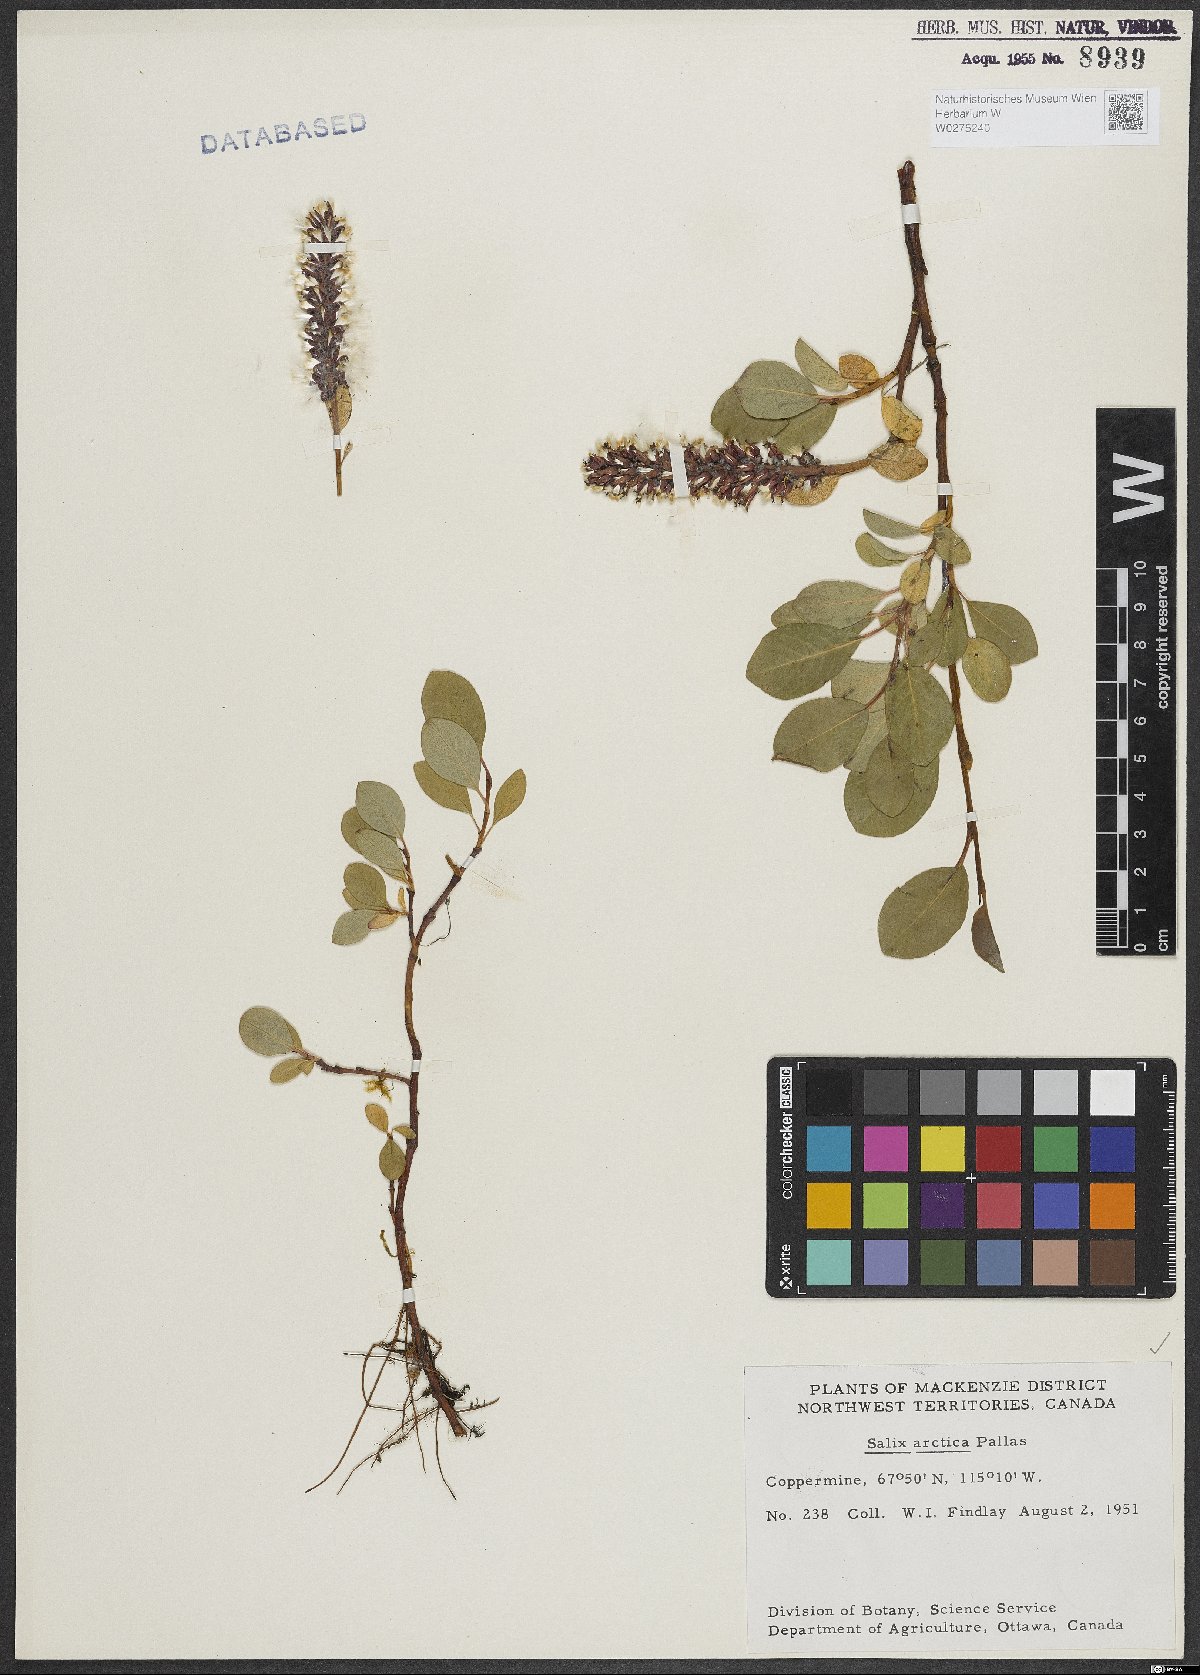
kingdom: Plantae
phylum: Tracheophyta
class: Magnoliopsida
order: Malpighiales
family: Salicaceae
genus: Salix
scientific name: Salix arctica
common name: Arctic willow
